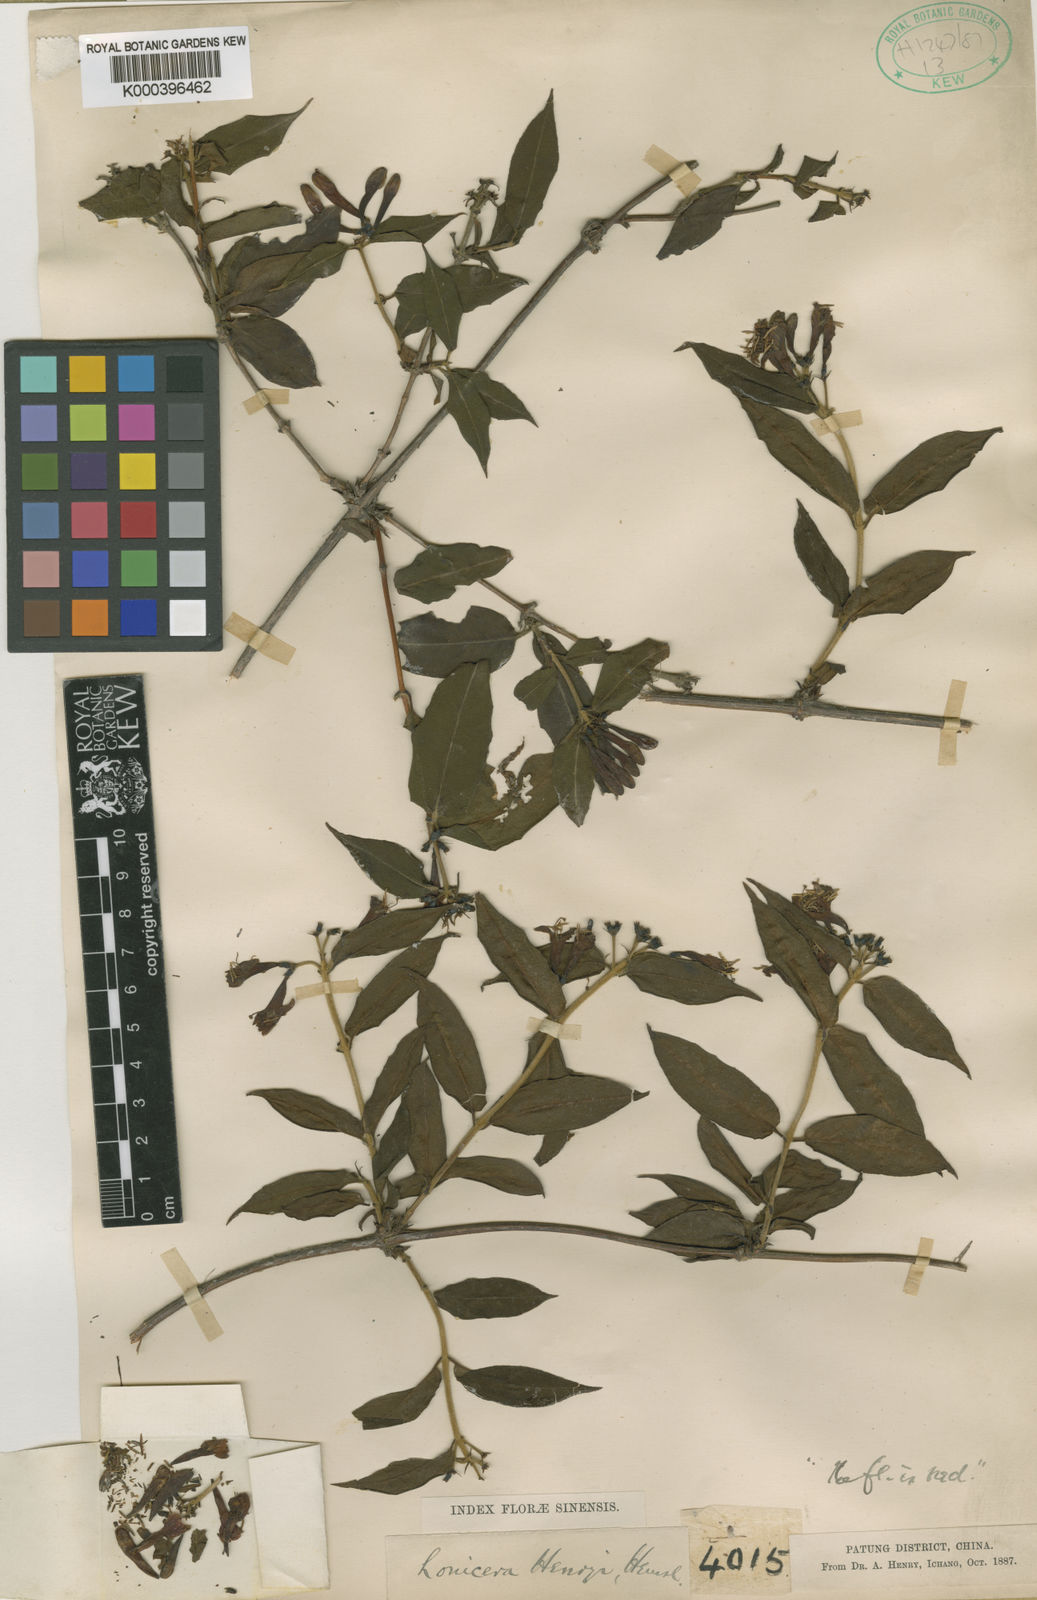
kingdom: Plantae
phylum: Tracheophyta
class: Magnoliopsida
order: Dipsacales
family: Caprifoliaceae
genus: Lonicera
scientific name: Lonicera acuminata
